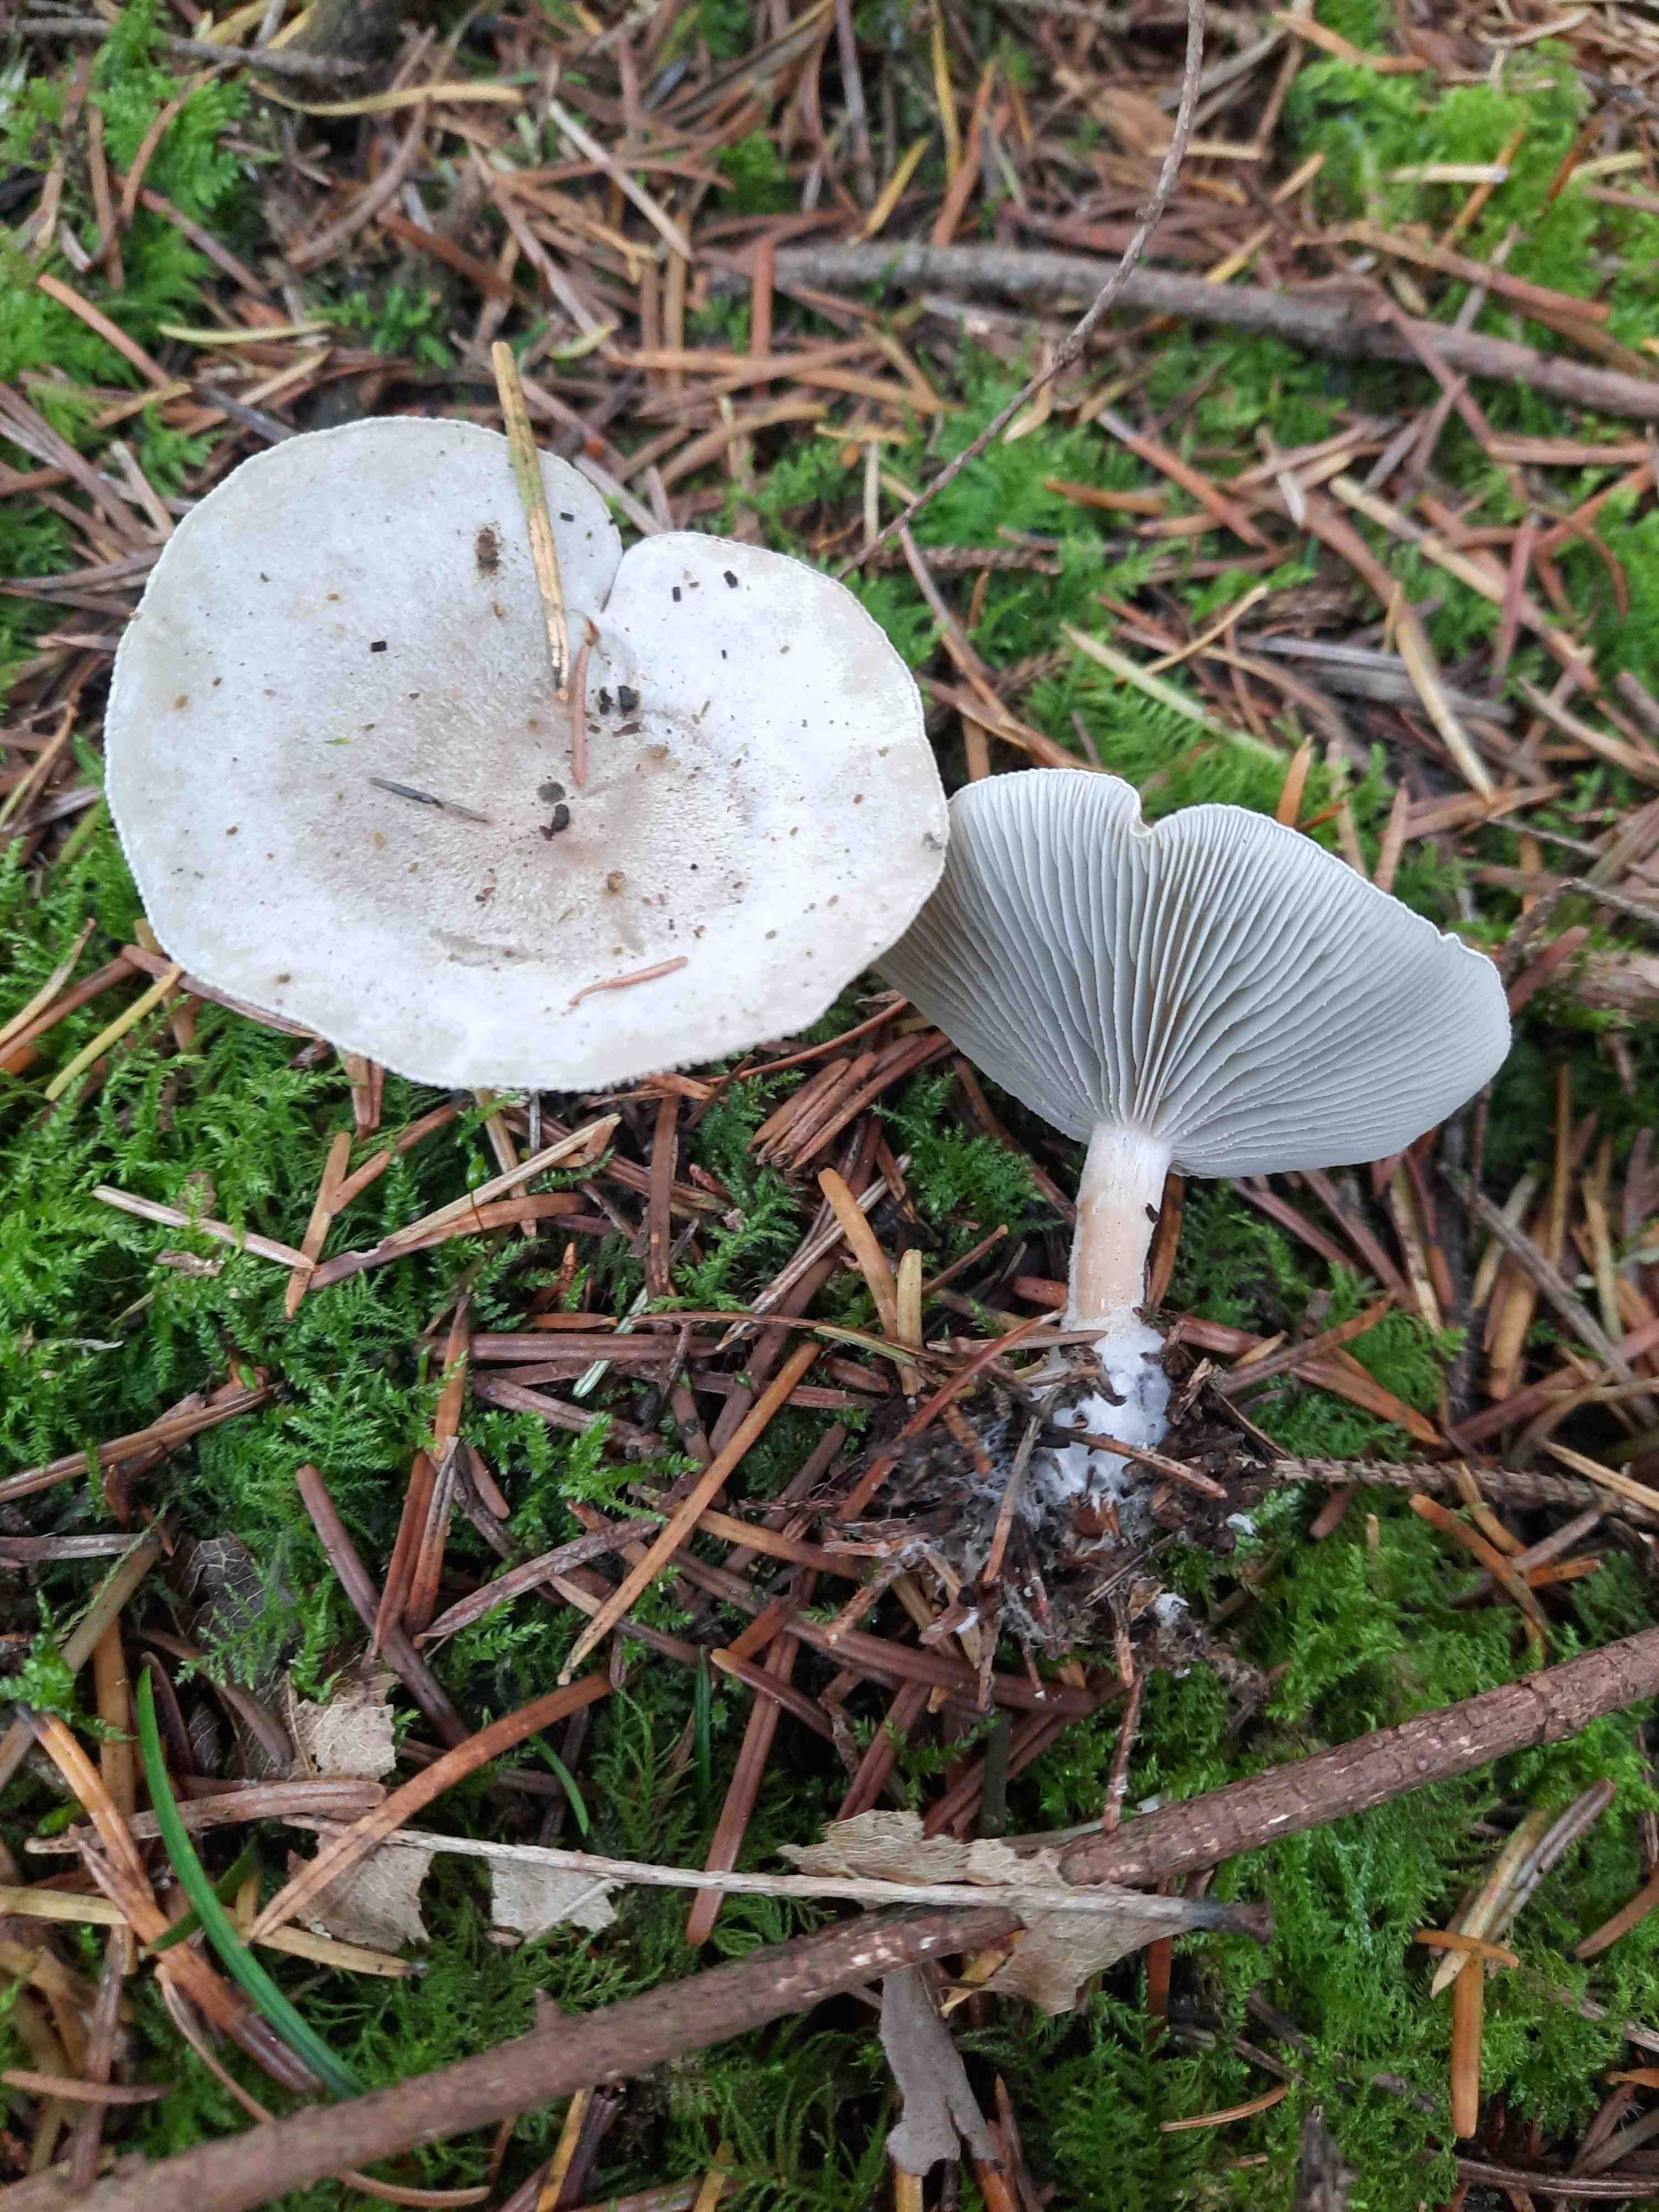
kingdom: Fungi
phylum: Basidiomycota
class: Agaricomycetes
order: Agaricales
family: Tricholomataceae
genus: Clitocybe
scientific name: Clitocybe odora
